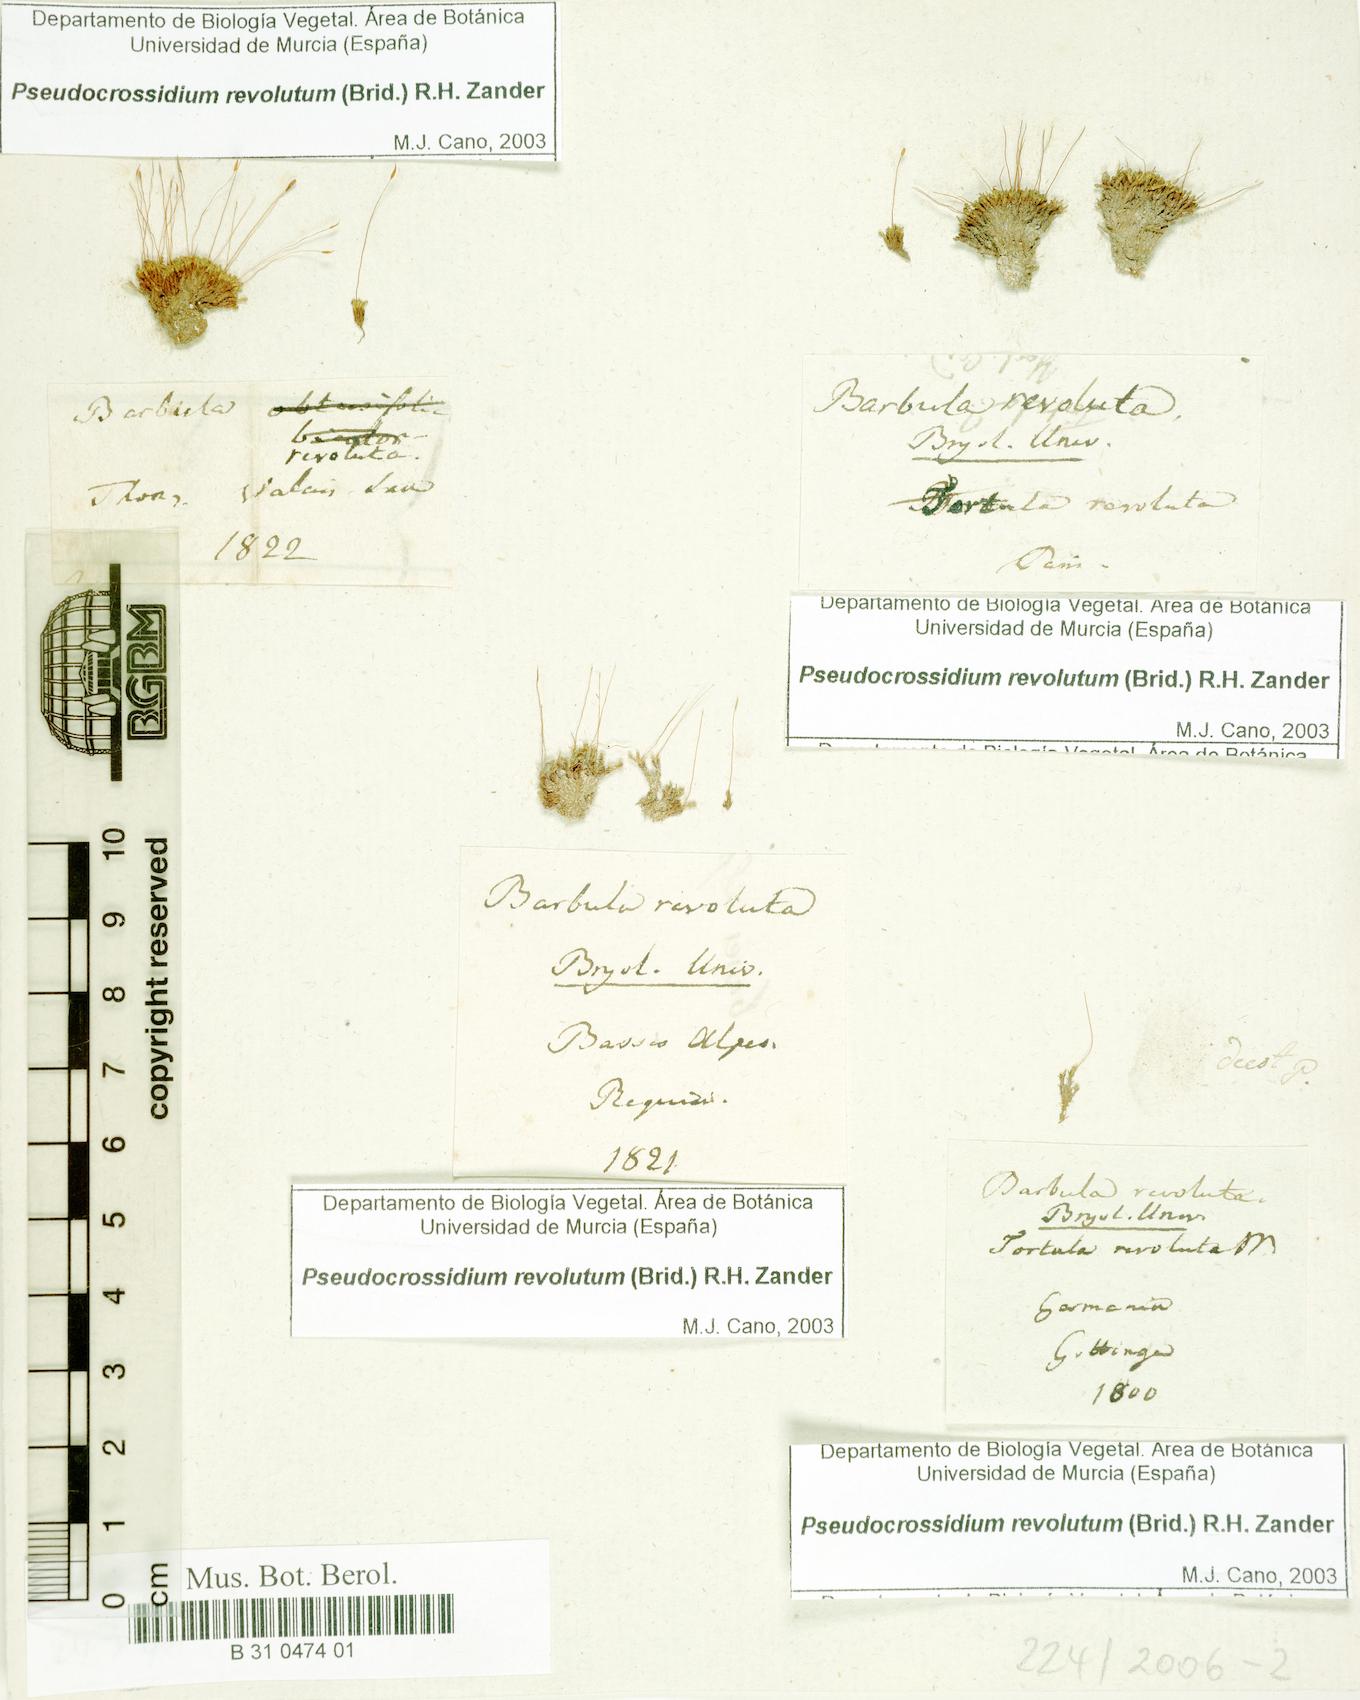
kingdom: Plantae
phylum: Bryophyta
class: Bryopsida
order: Pottiales
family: Pottiaceae
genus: Pseudocrossidium
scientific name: Pseudocrossidium revolutum
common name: Revolute beard-moss
